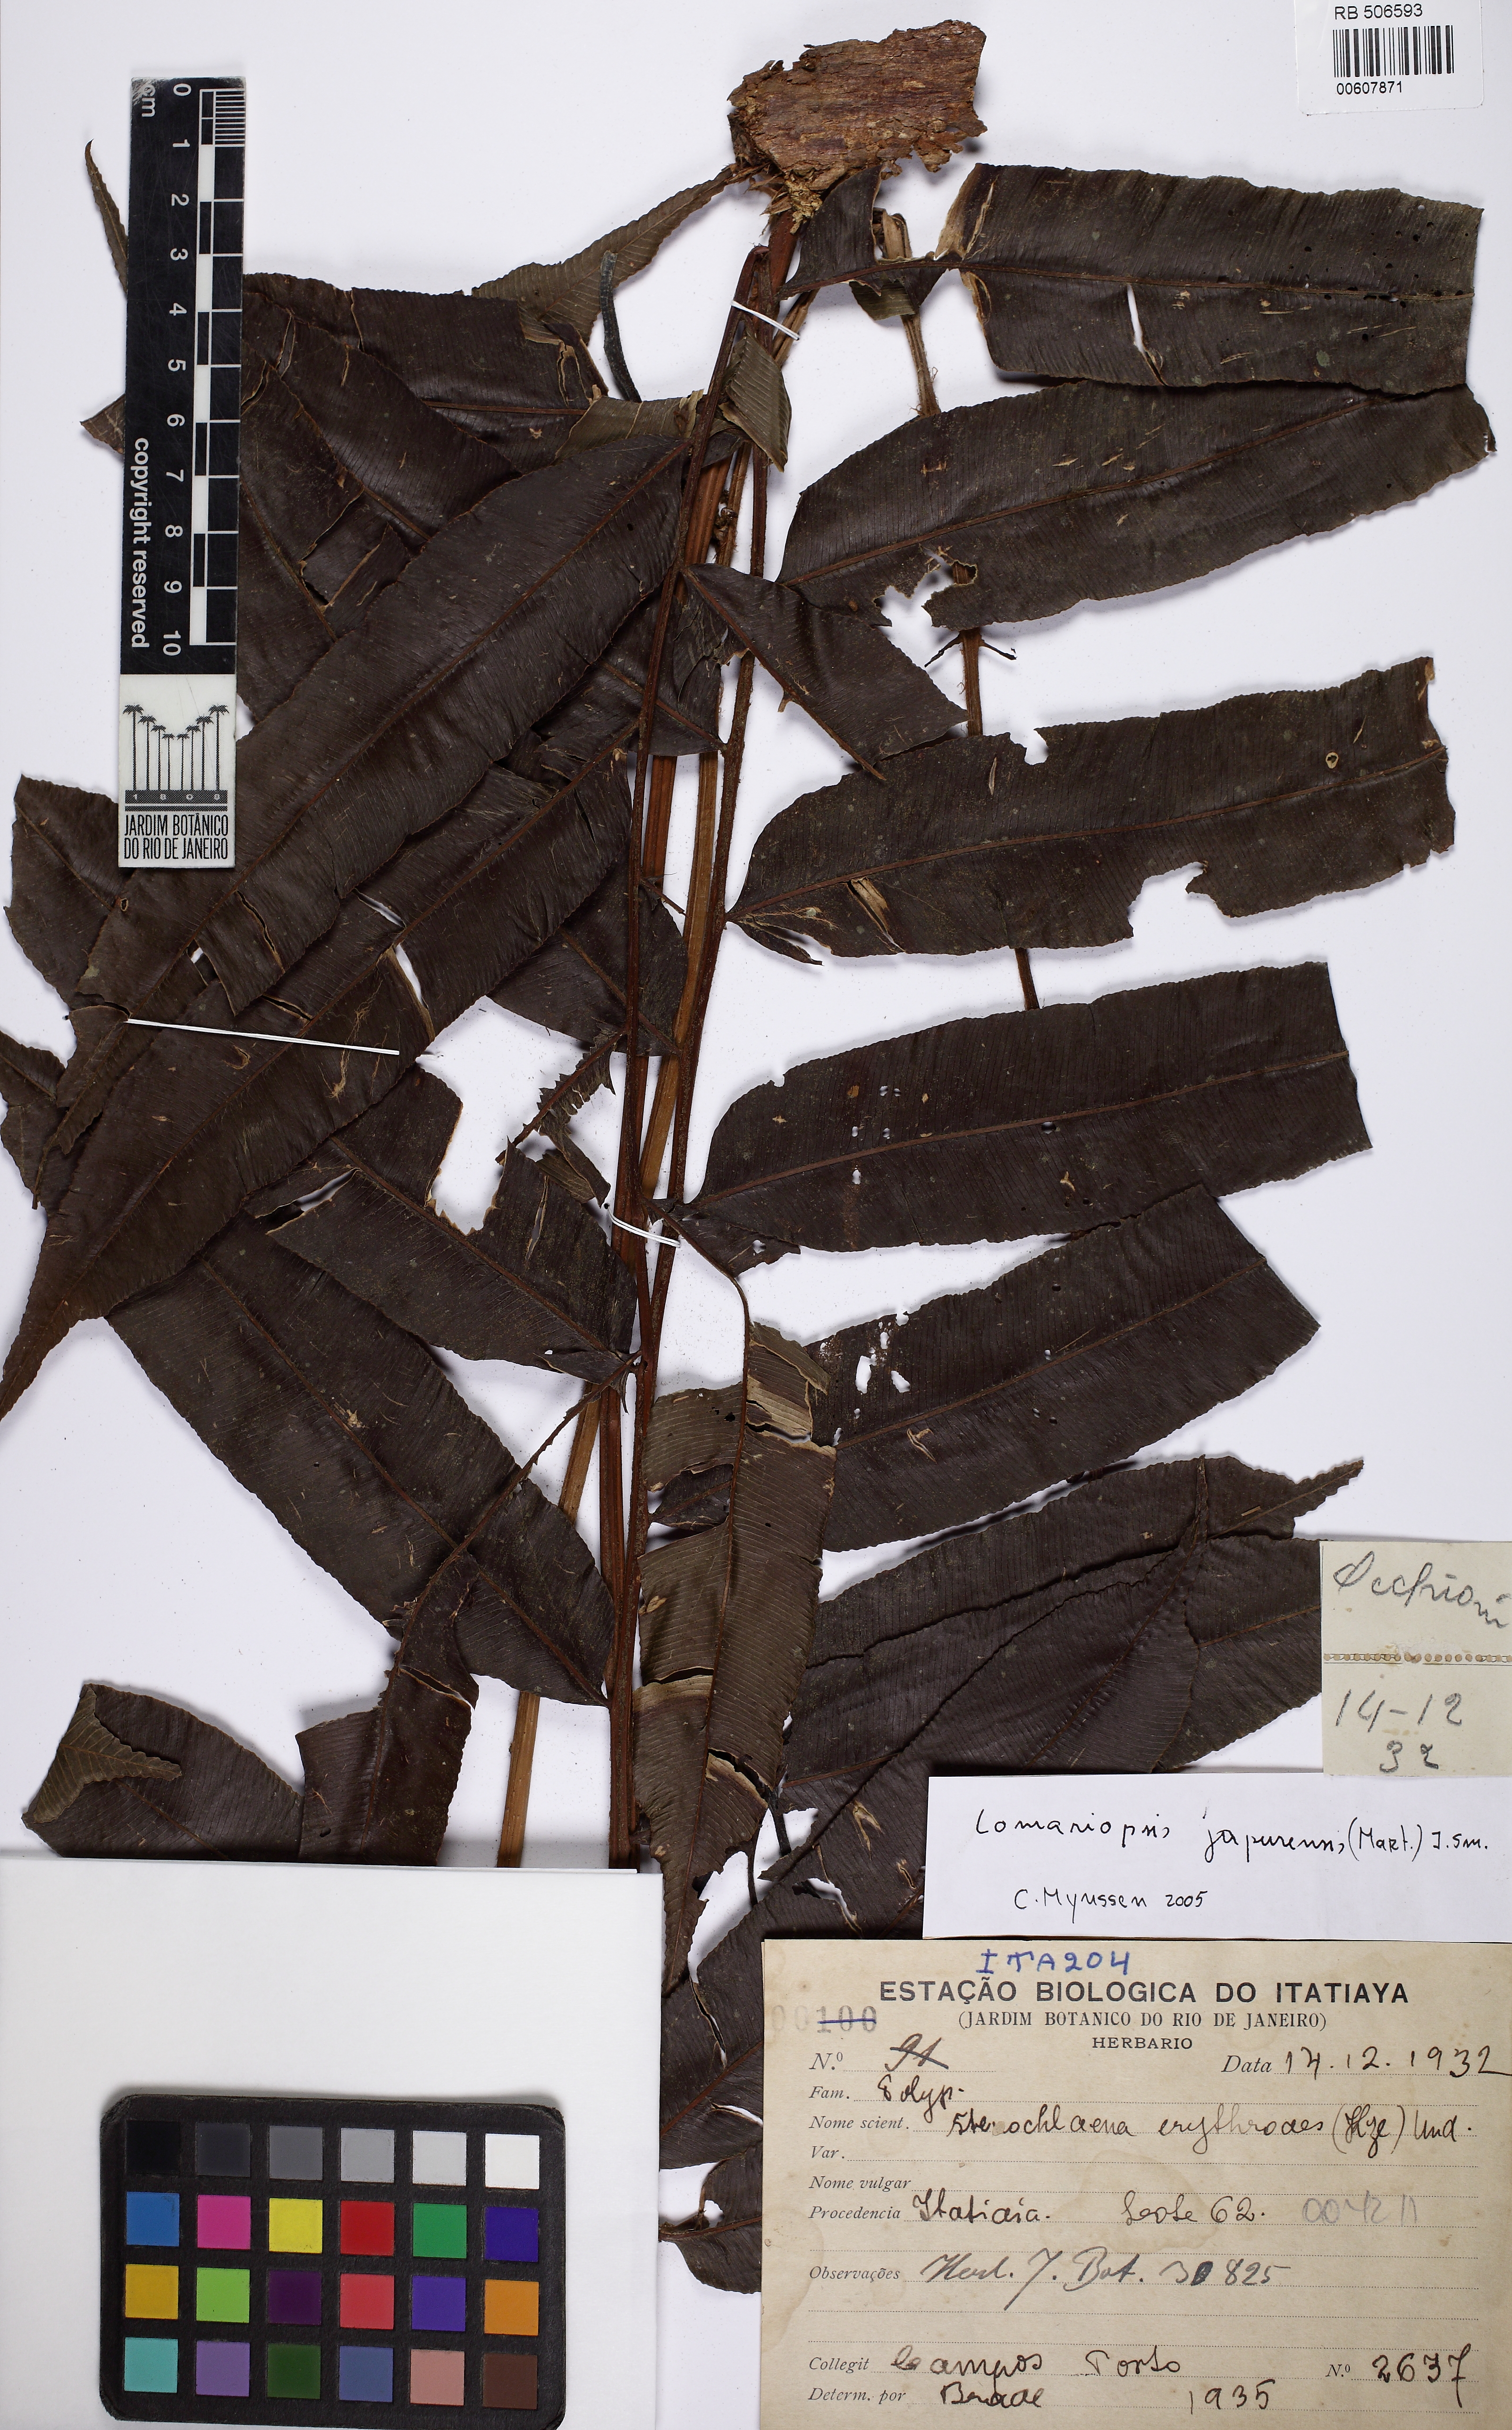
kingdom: Plantae
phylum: Tracheophyta
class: Polypodiopsida
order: Polypodiales
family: Lomariopsidaceae
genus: Lomariopsis
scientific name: Lomariopsis marginata
